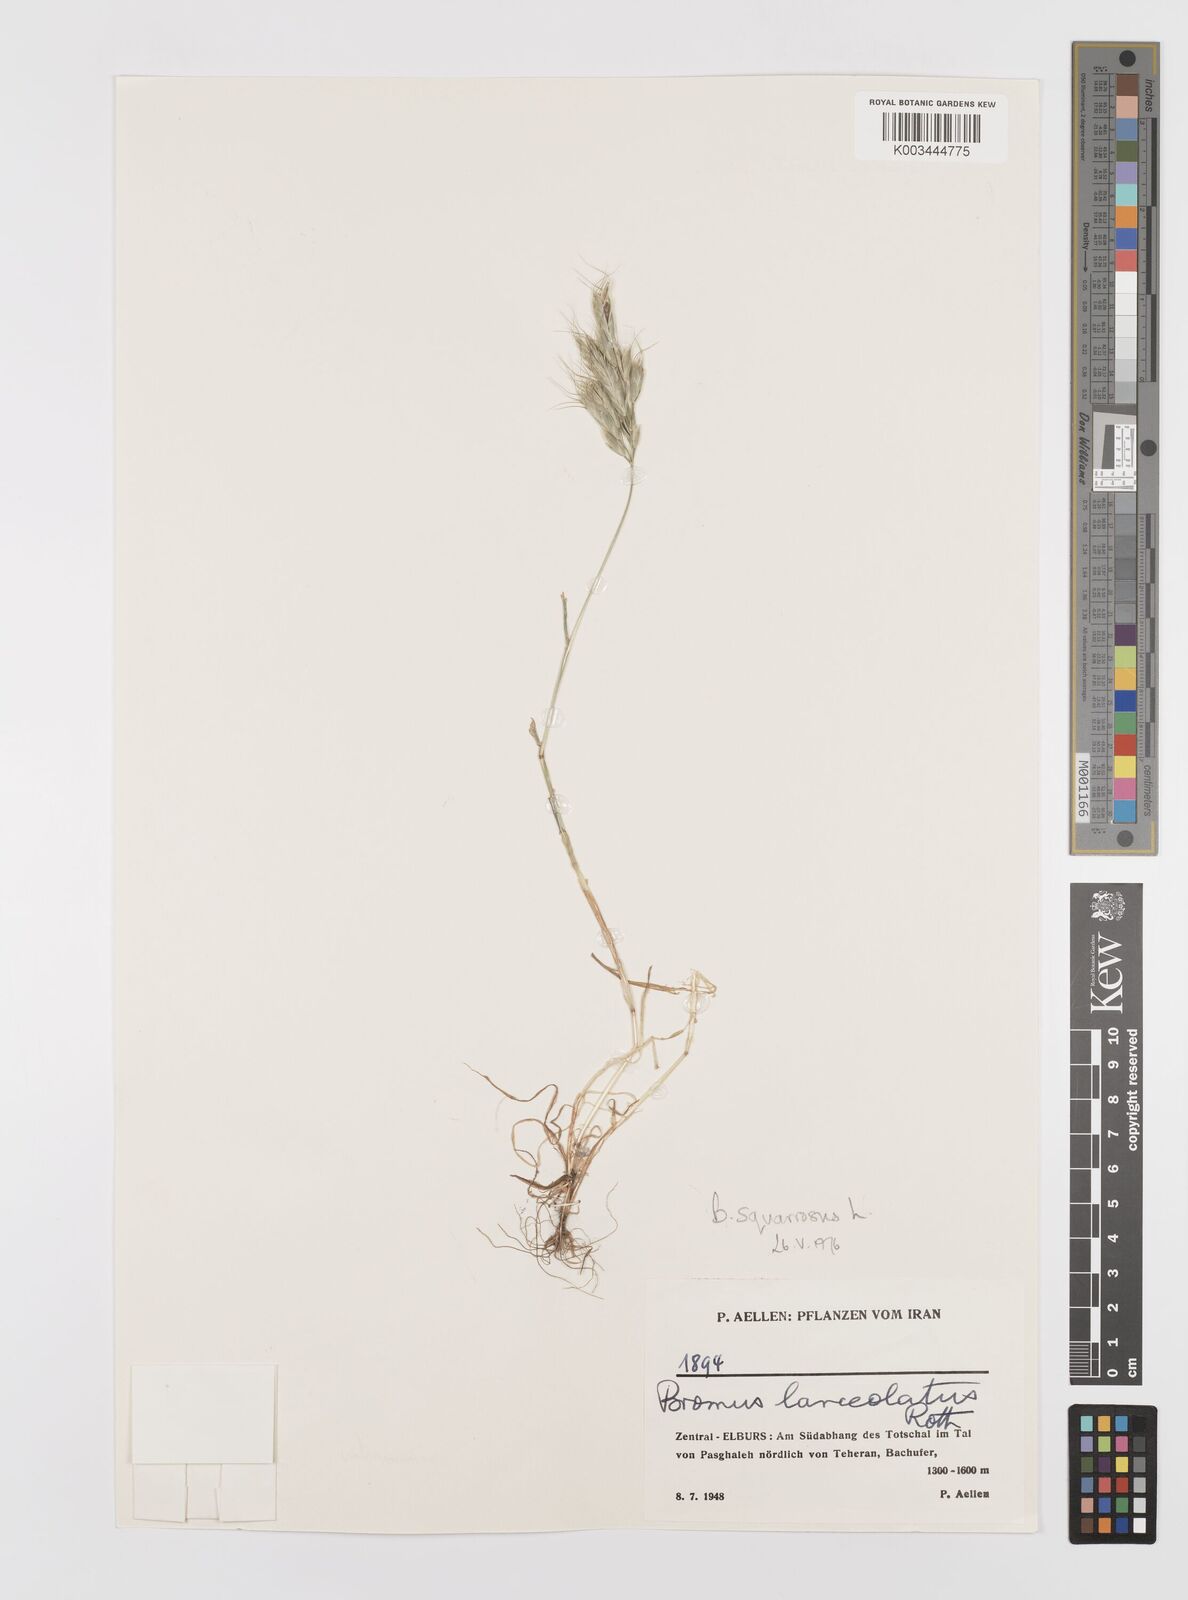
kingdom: Plantae
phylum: Tracheophyta
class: Liliopsida
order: Poales
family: Poaceae
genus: Bromus
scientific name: Bromus squarrosus
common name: Corn brome
